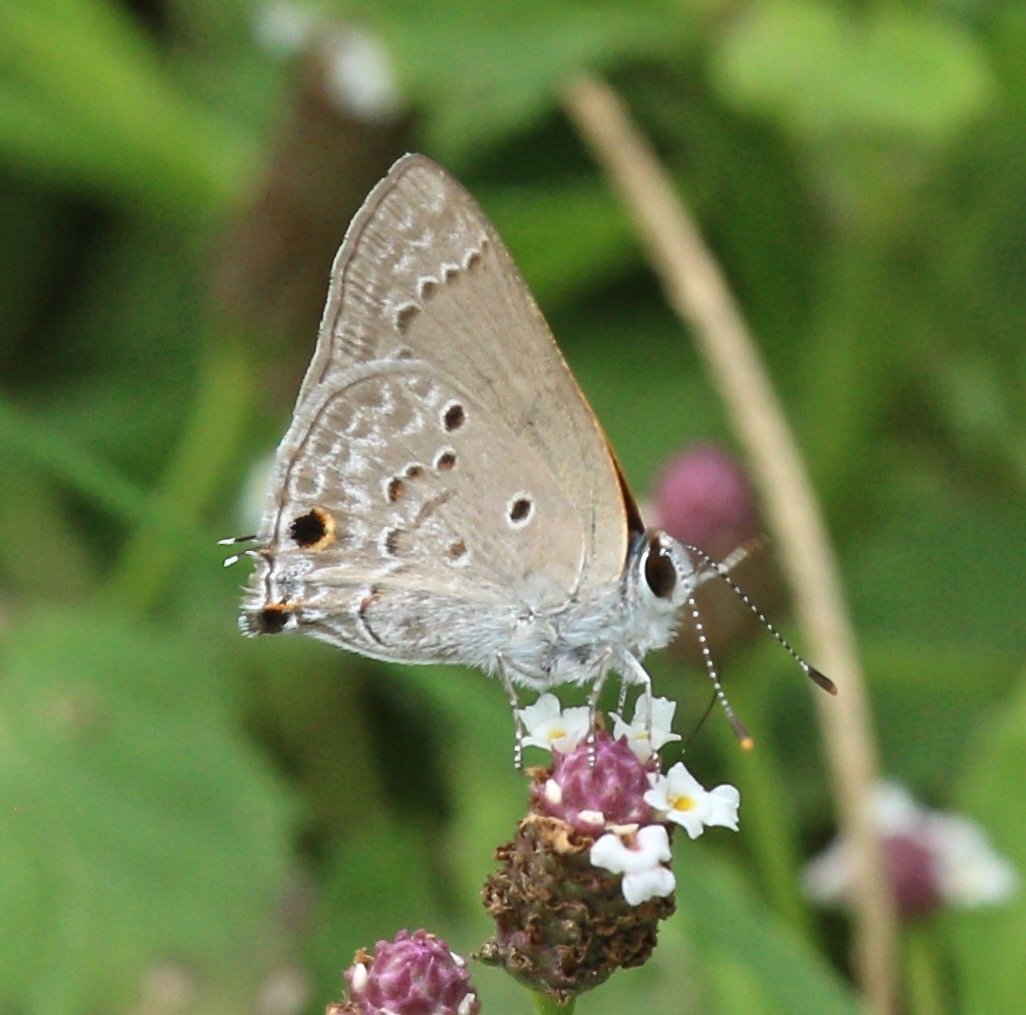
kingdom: Animalia
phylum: Arthropoda
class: Insecta
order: Lepidoptera
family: Lycaenidae
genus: Callicista
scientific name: Callicista columella
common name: Mallow Scrub-Hairstreak
